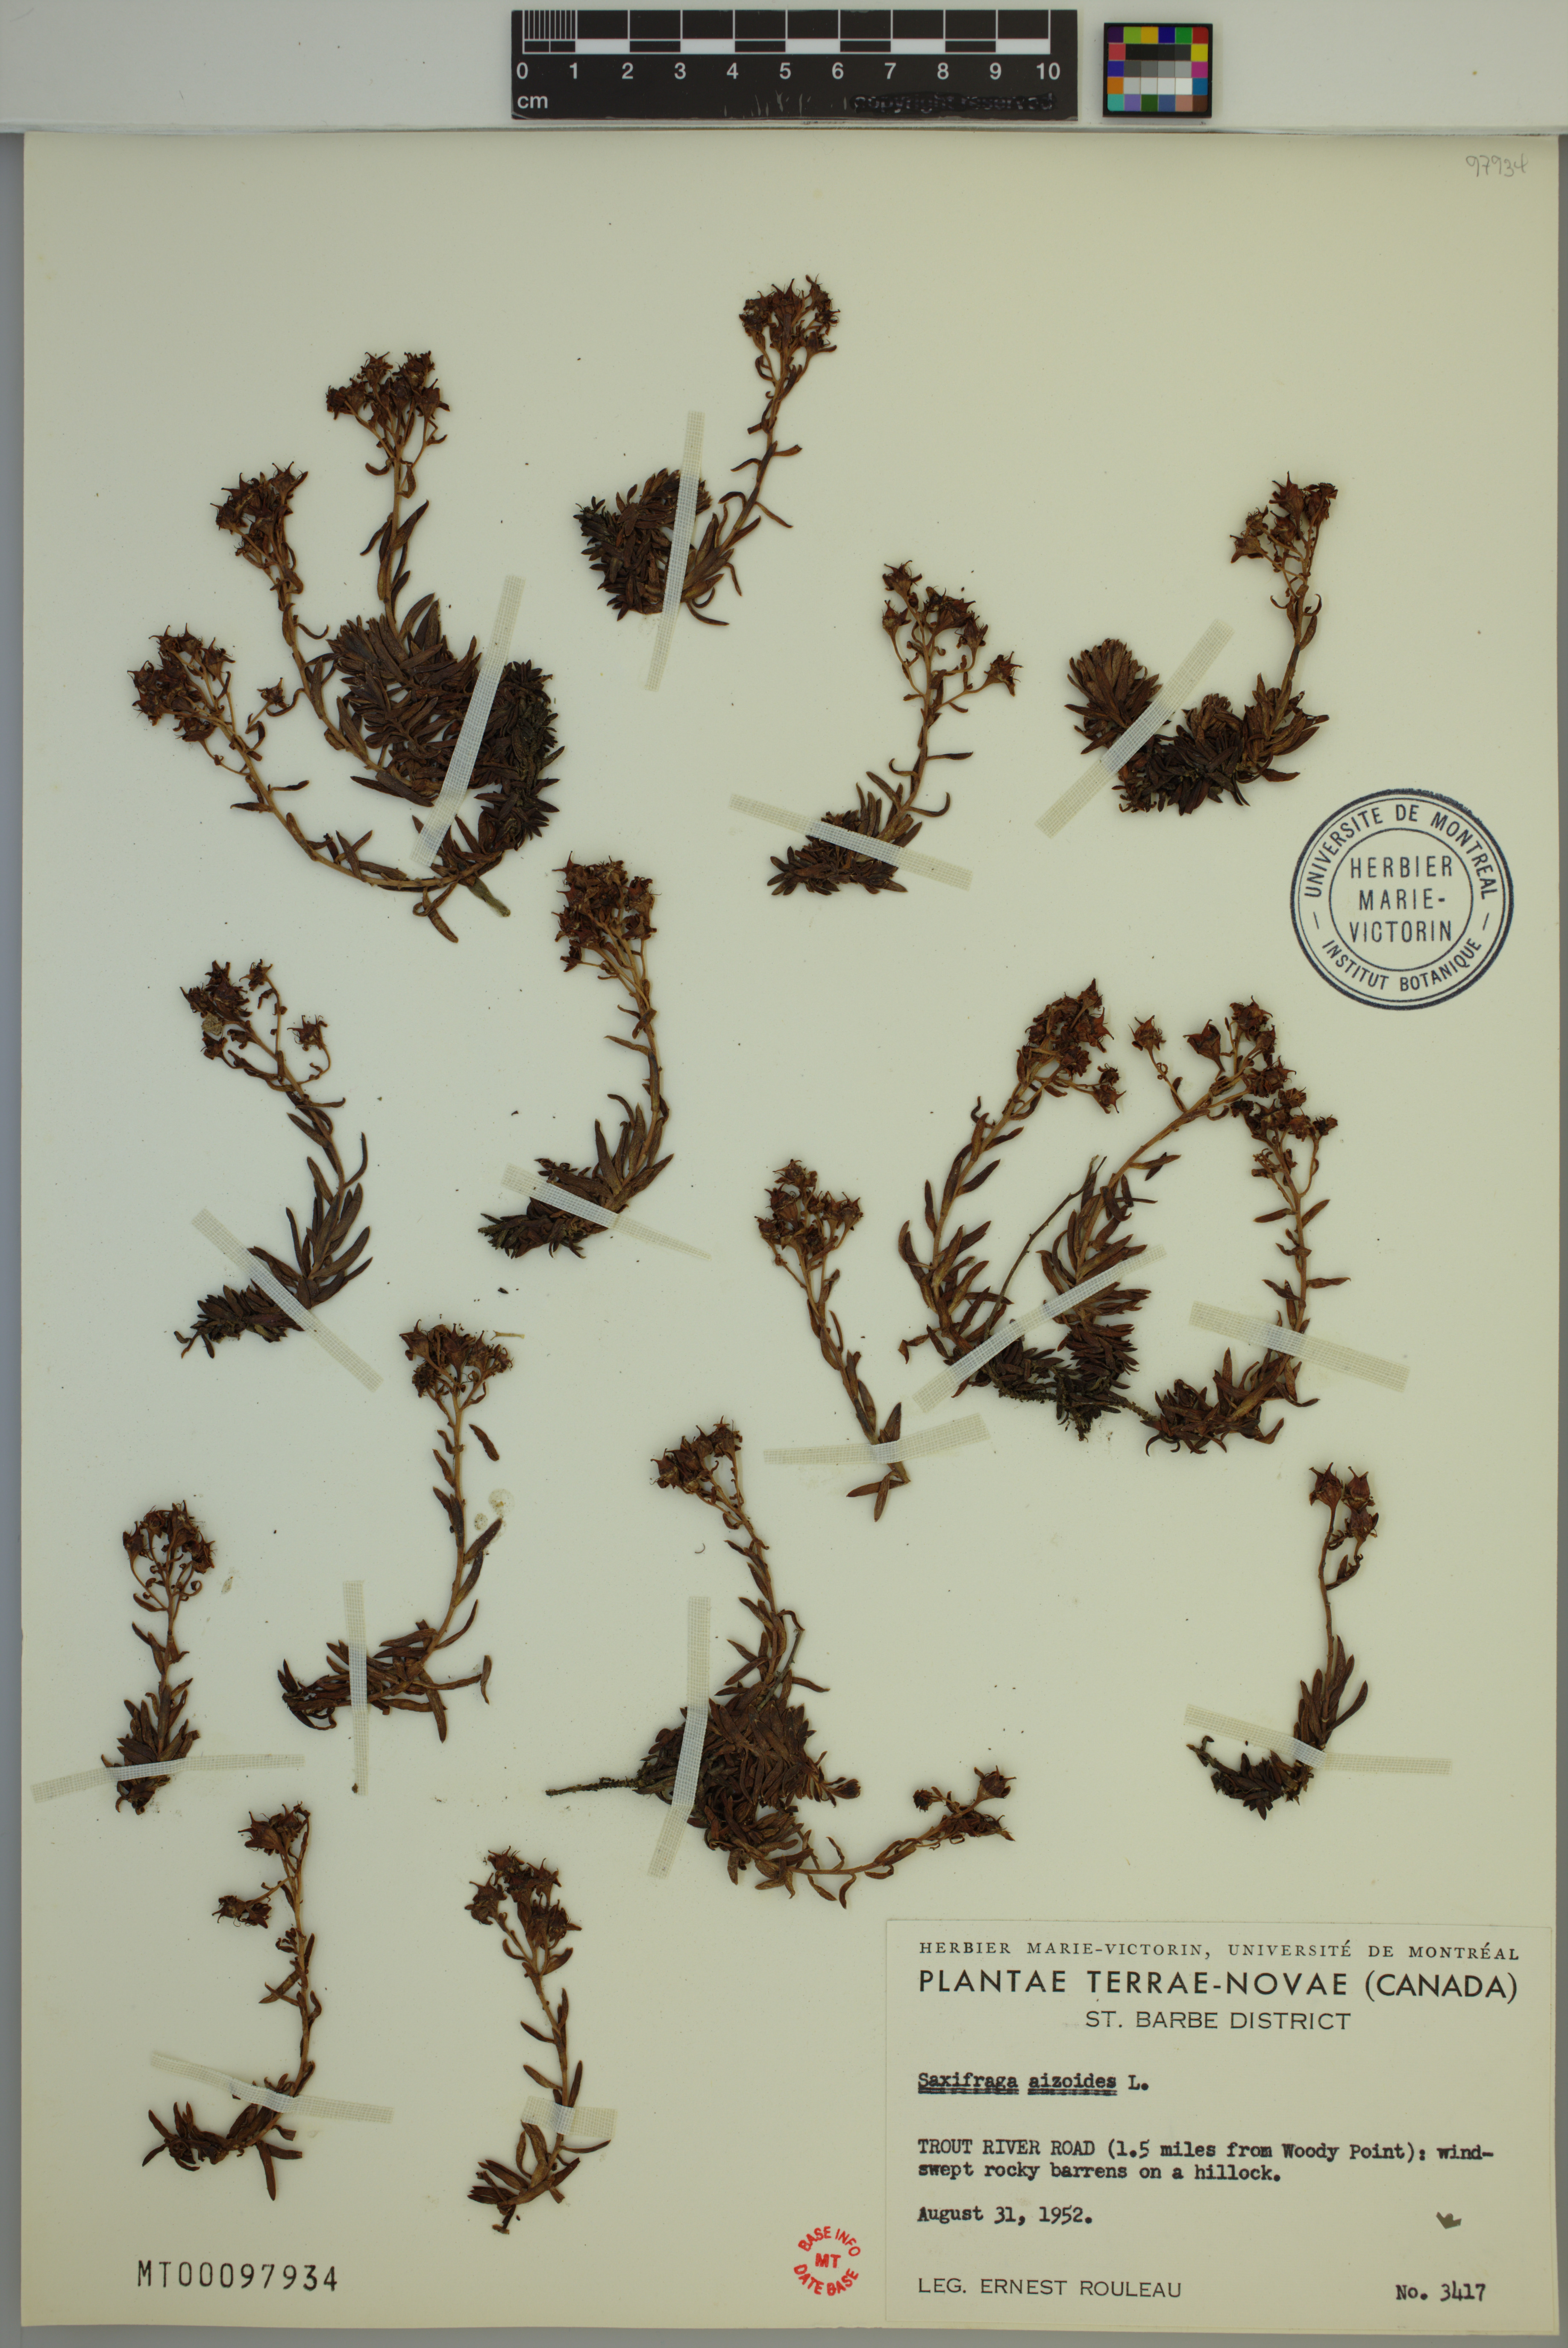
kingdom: Plantae
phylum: Tracheophyta
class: Magnoliopsida
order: Saxifragales
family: Saxifragaceae
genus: Saxifraga
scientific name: Saxifraga aizoides
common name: Yellow mountain saxifrage
